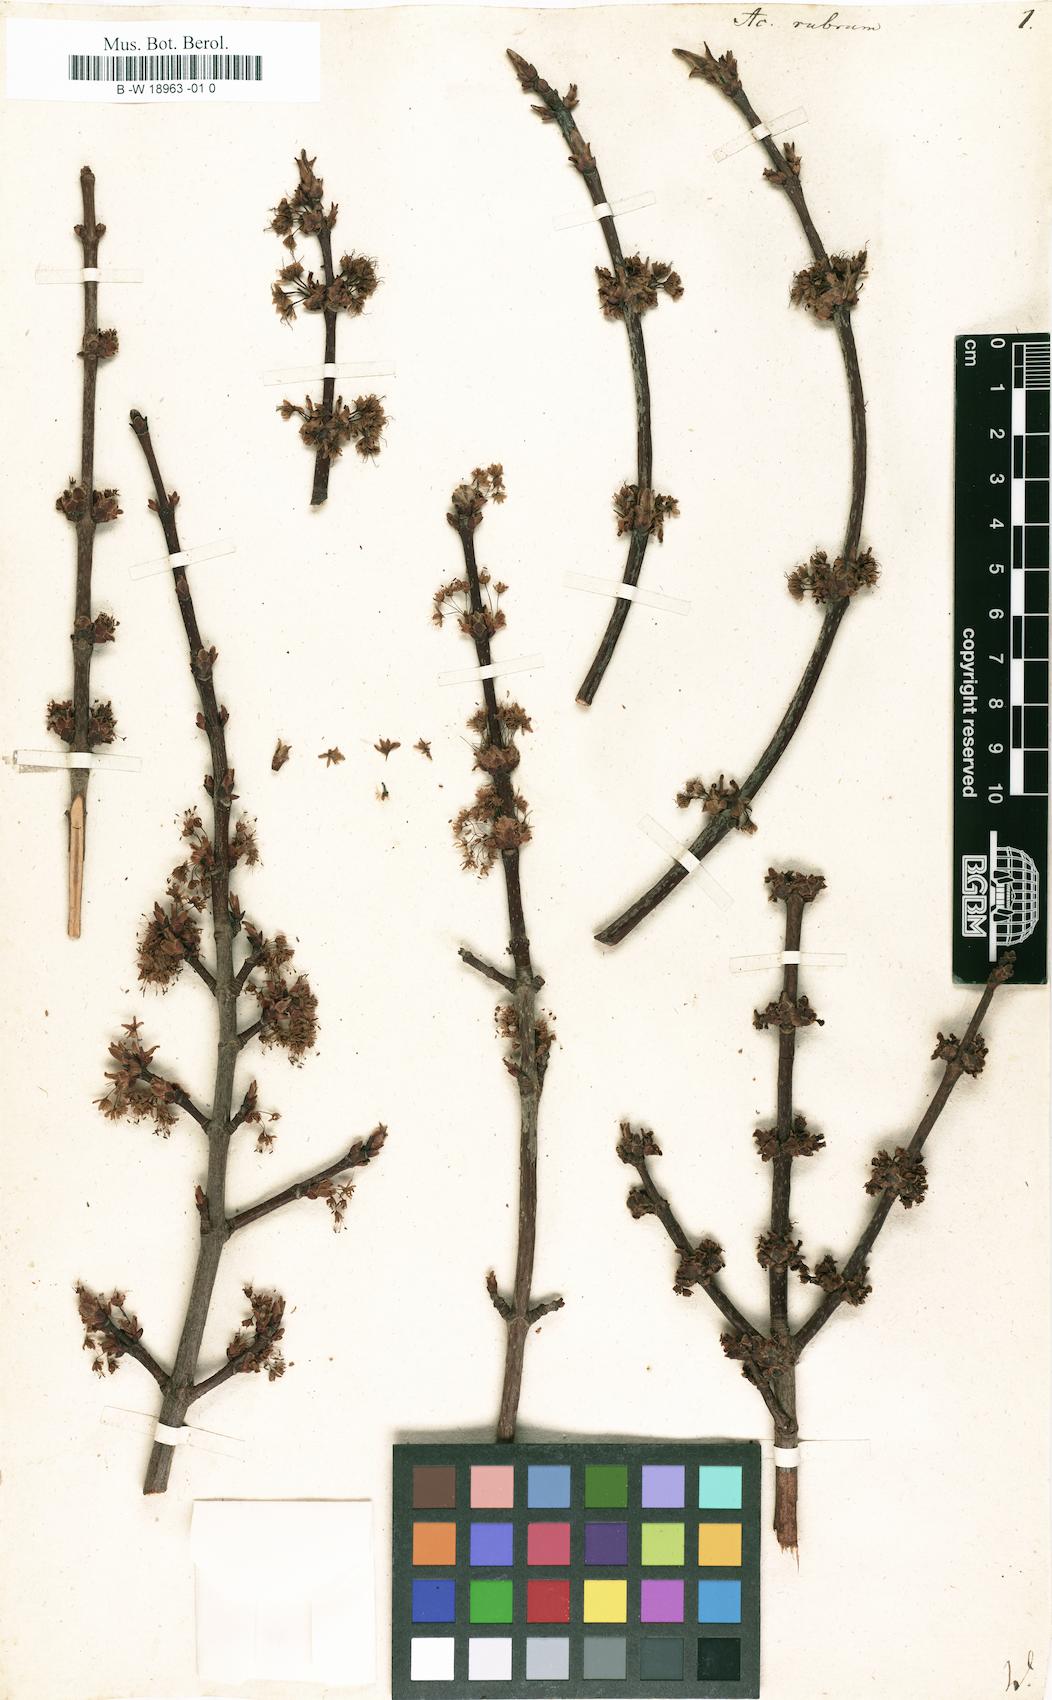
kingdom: Plantae
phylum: Tracheophyta
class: Magnoliopsida
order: Sapindales
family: Sapindaceae
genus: Acer
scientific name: Acer rubrum
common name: Red maple
